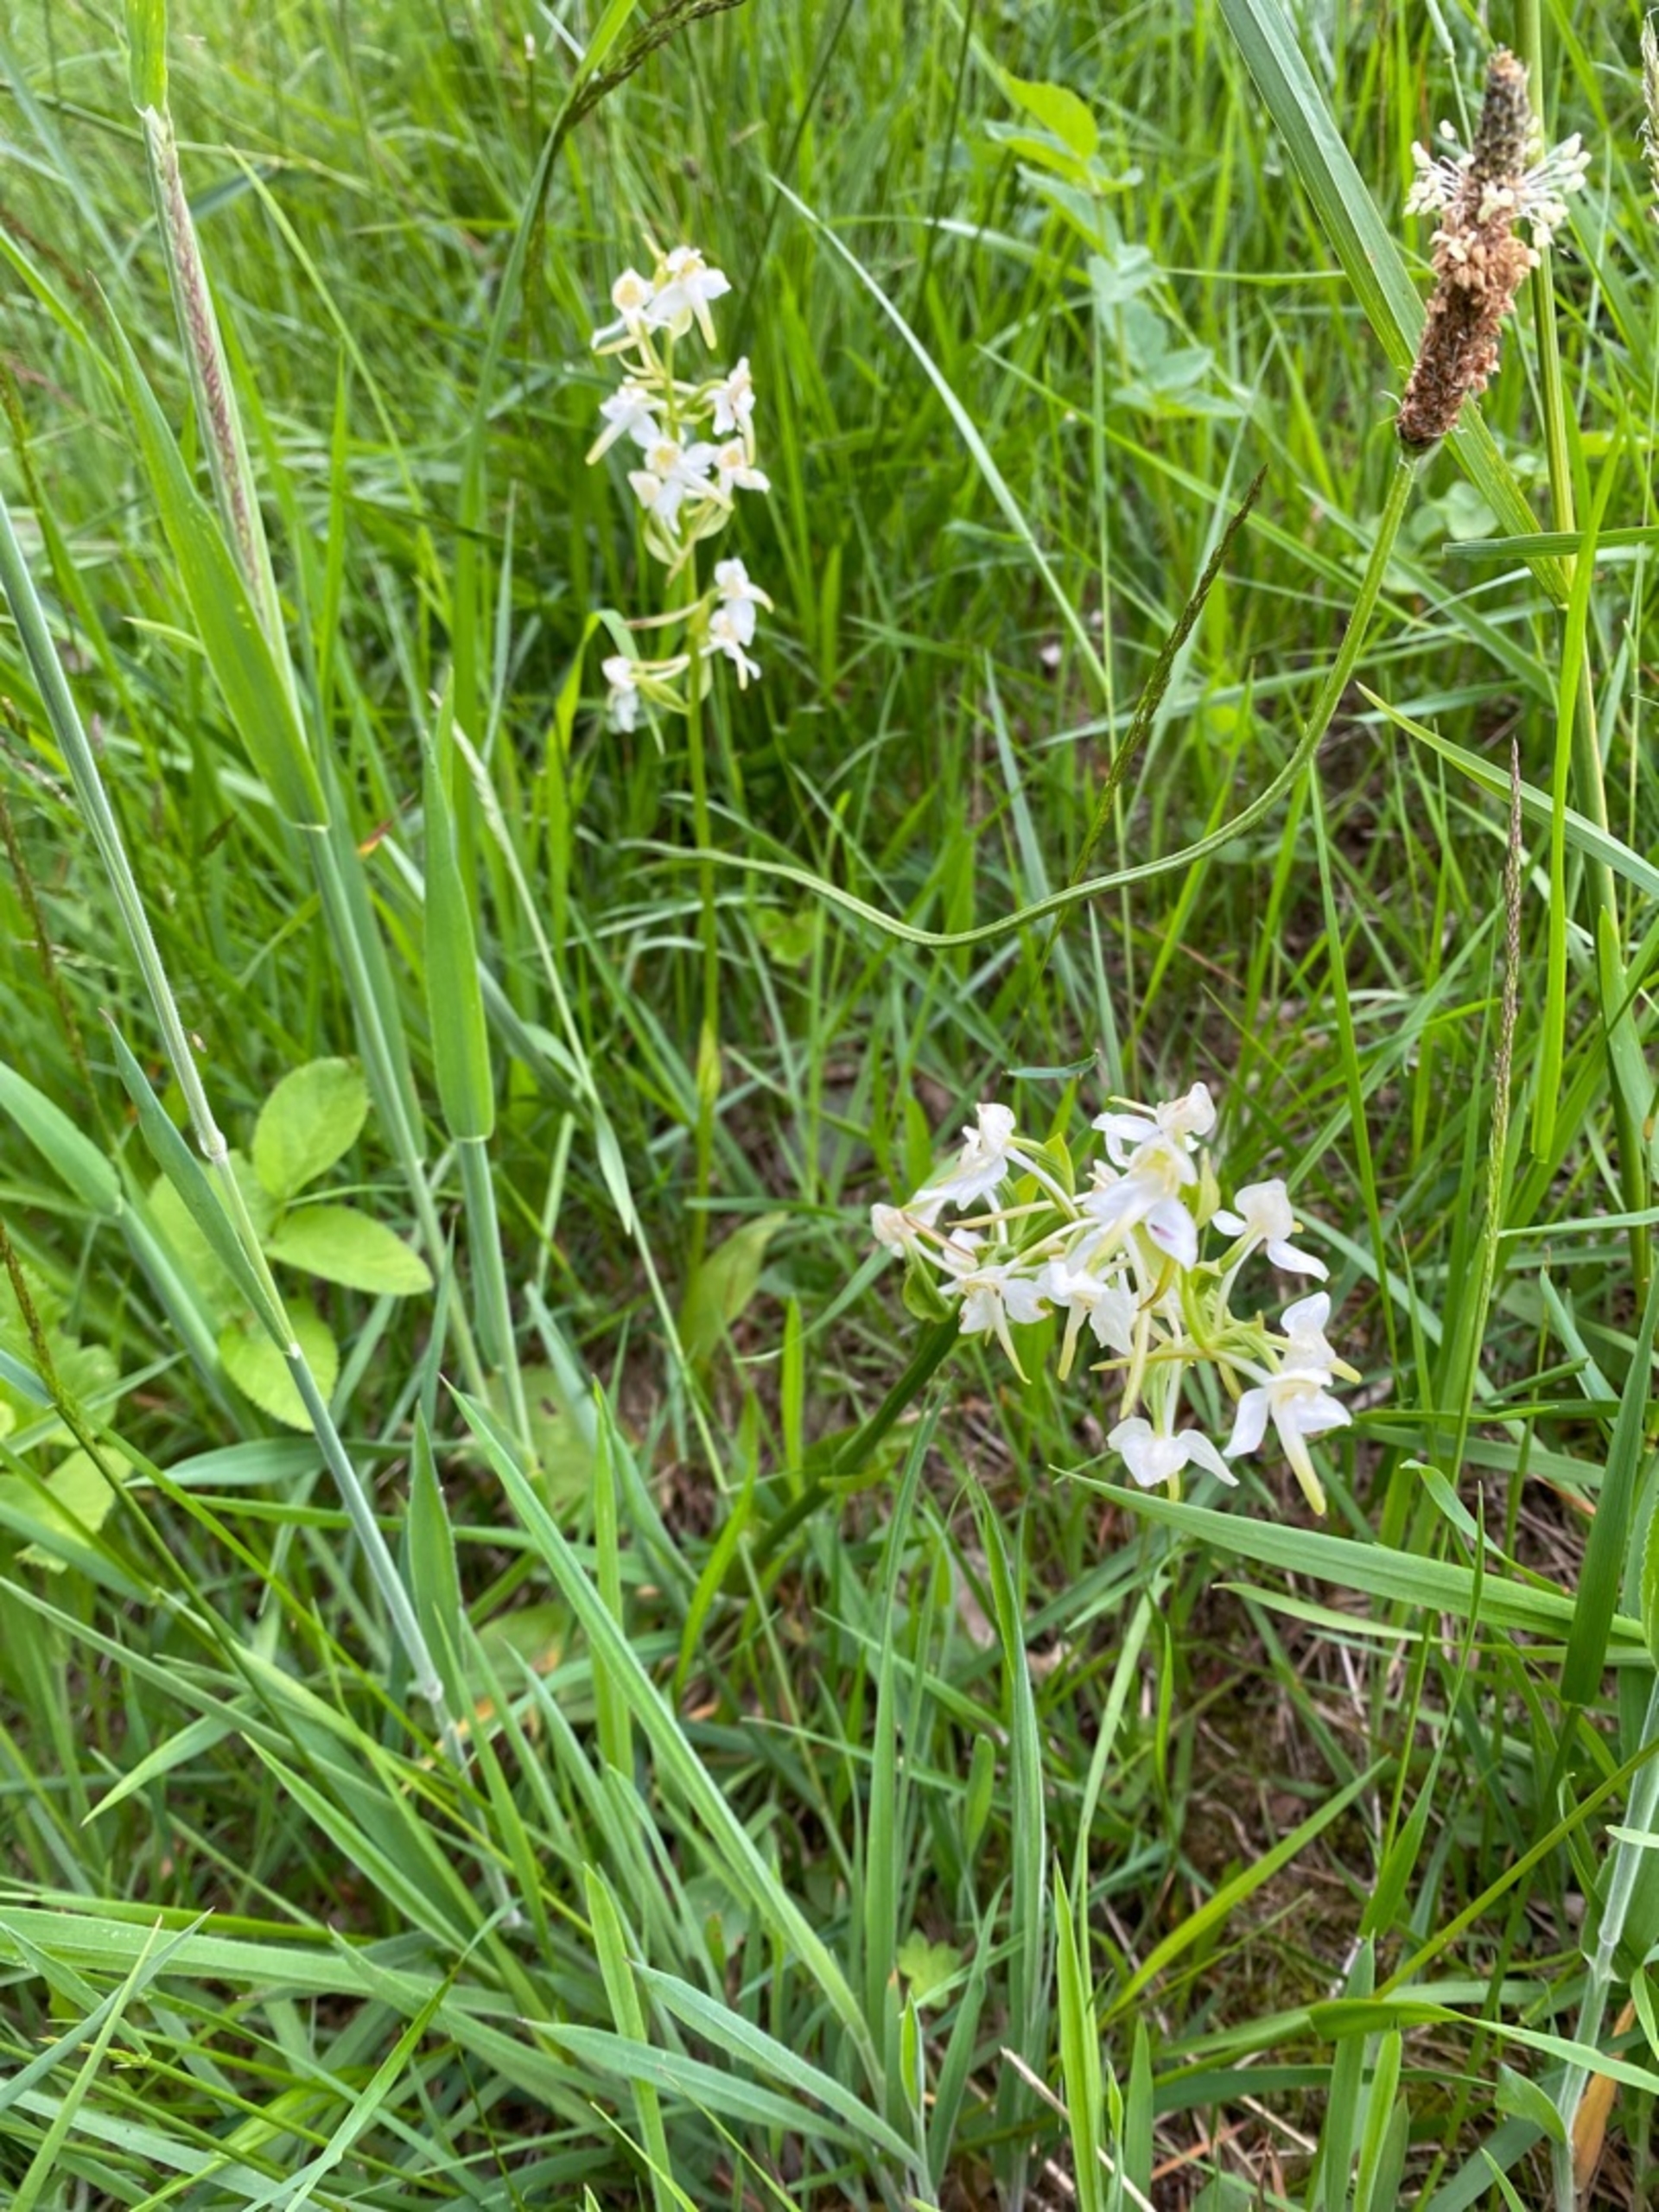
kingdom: Plantae
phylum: Tracheophyta
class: Liliopsida
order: Asparagales
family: Orchidaceae
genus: Platanthera
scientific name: Platanthera chlorantha
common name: Skov-gøgelilje
